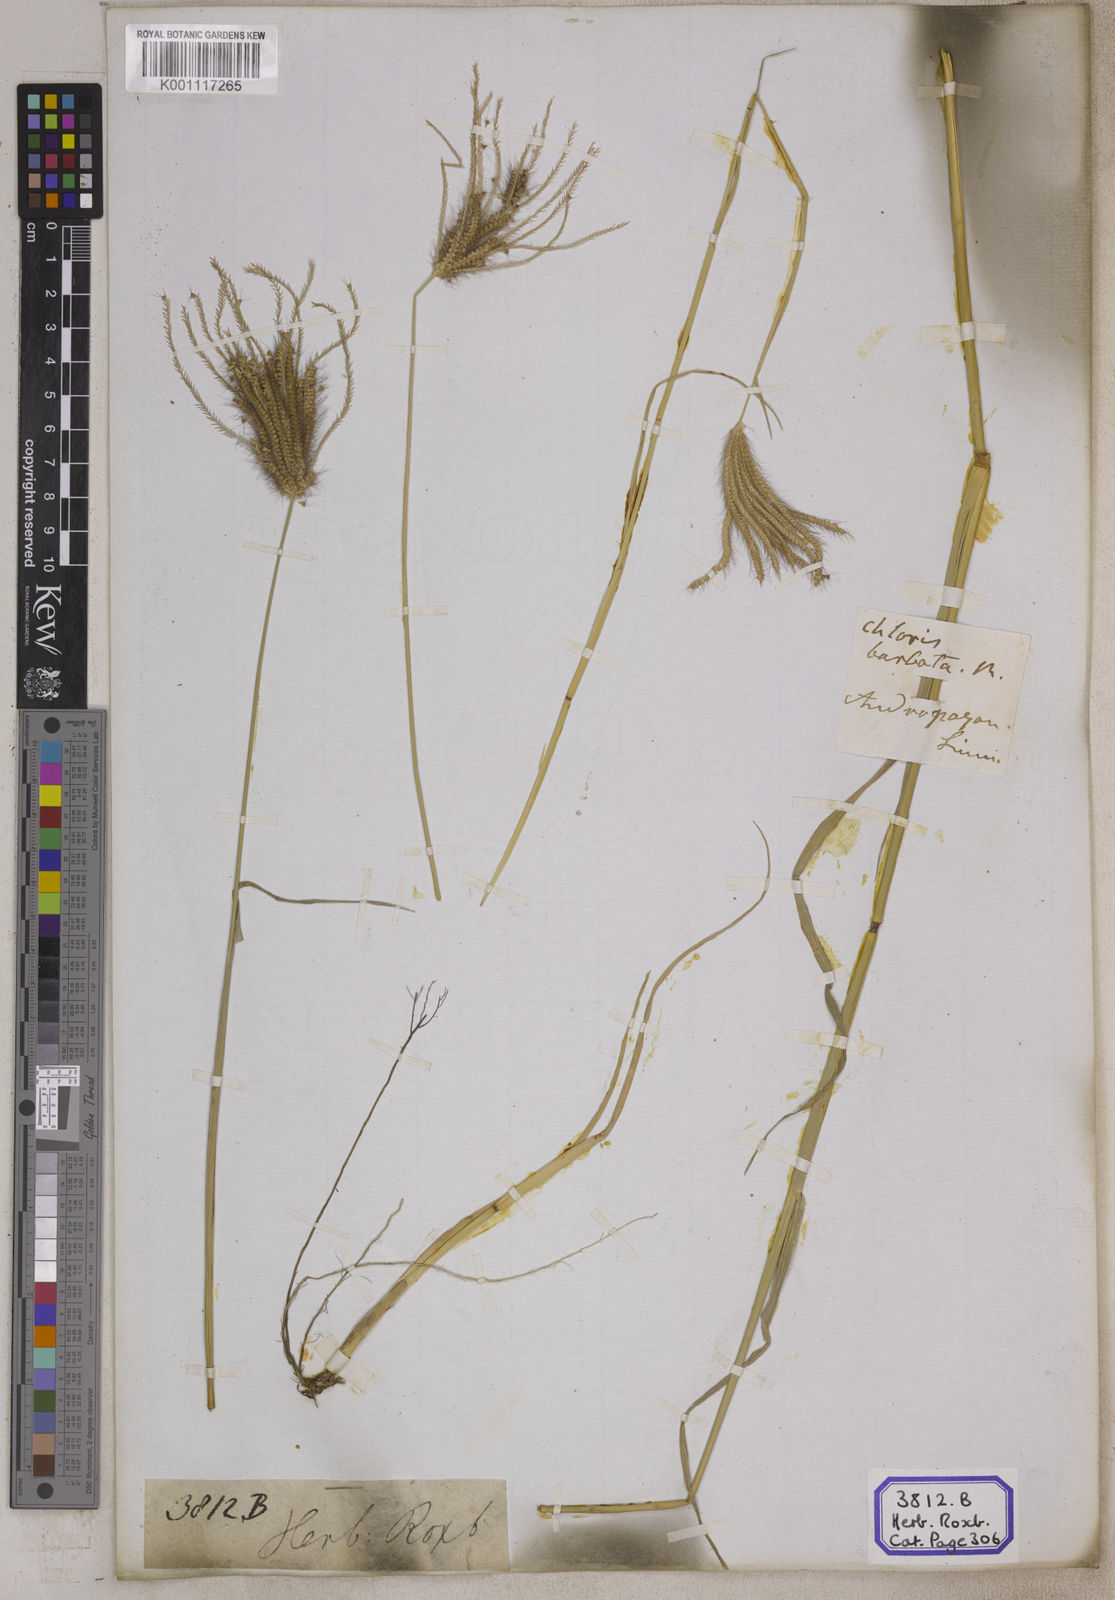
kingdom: Plantae
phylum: Tracheophyta
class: Liliopsida
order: Poales
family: Poaceae
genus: Chloris
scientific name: Chloris
